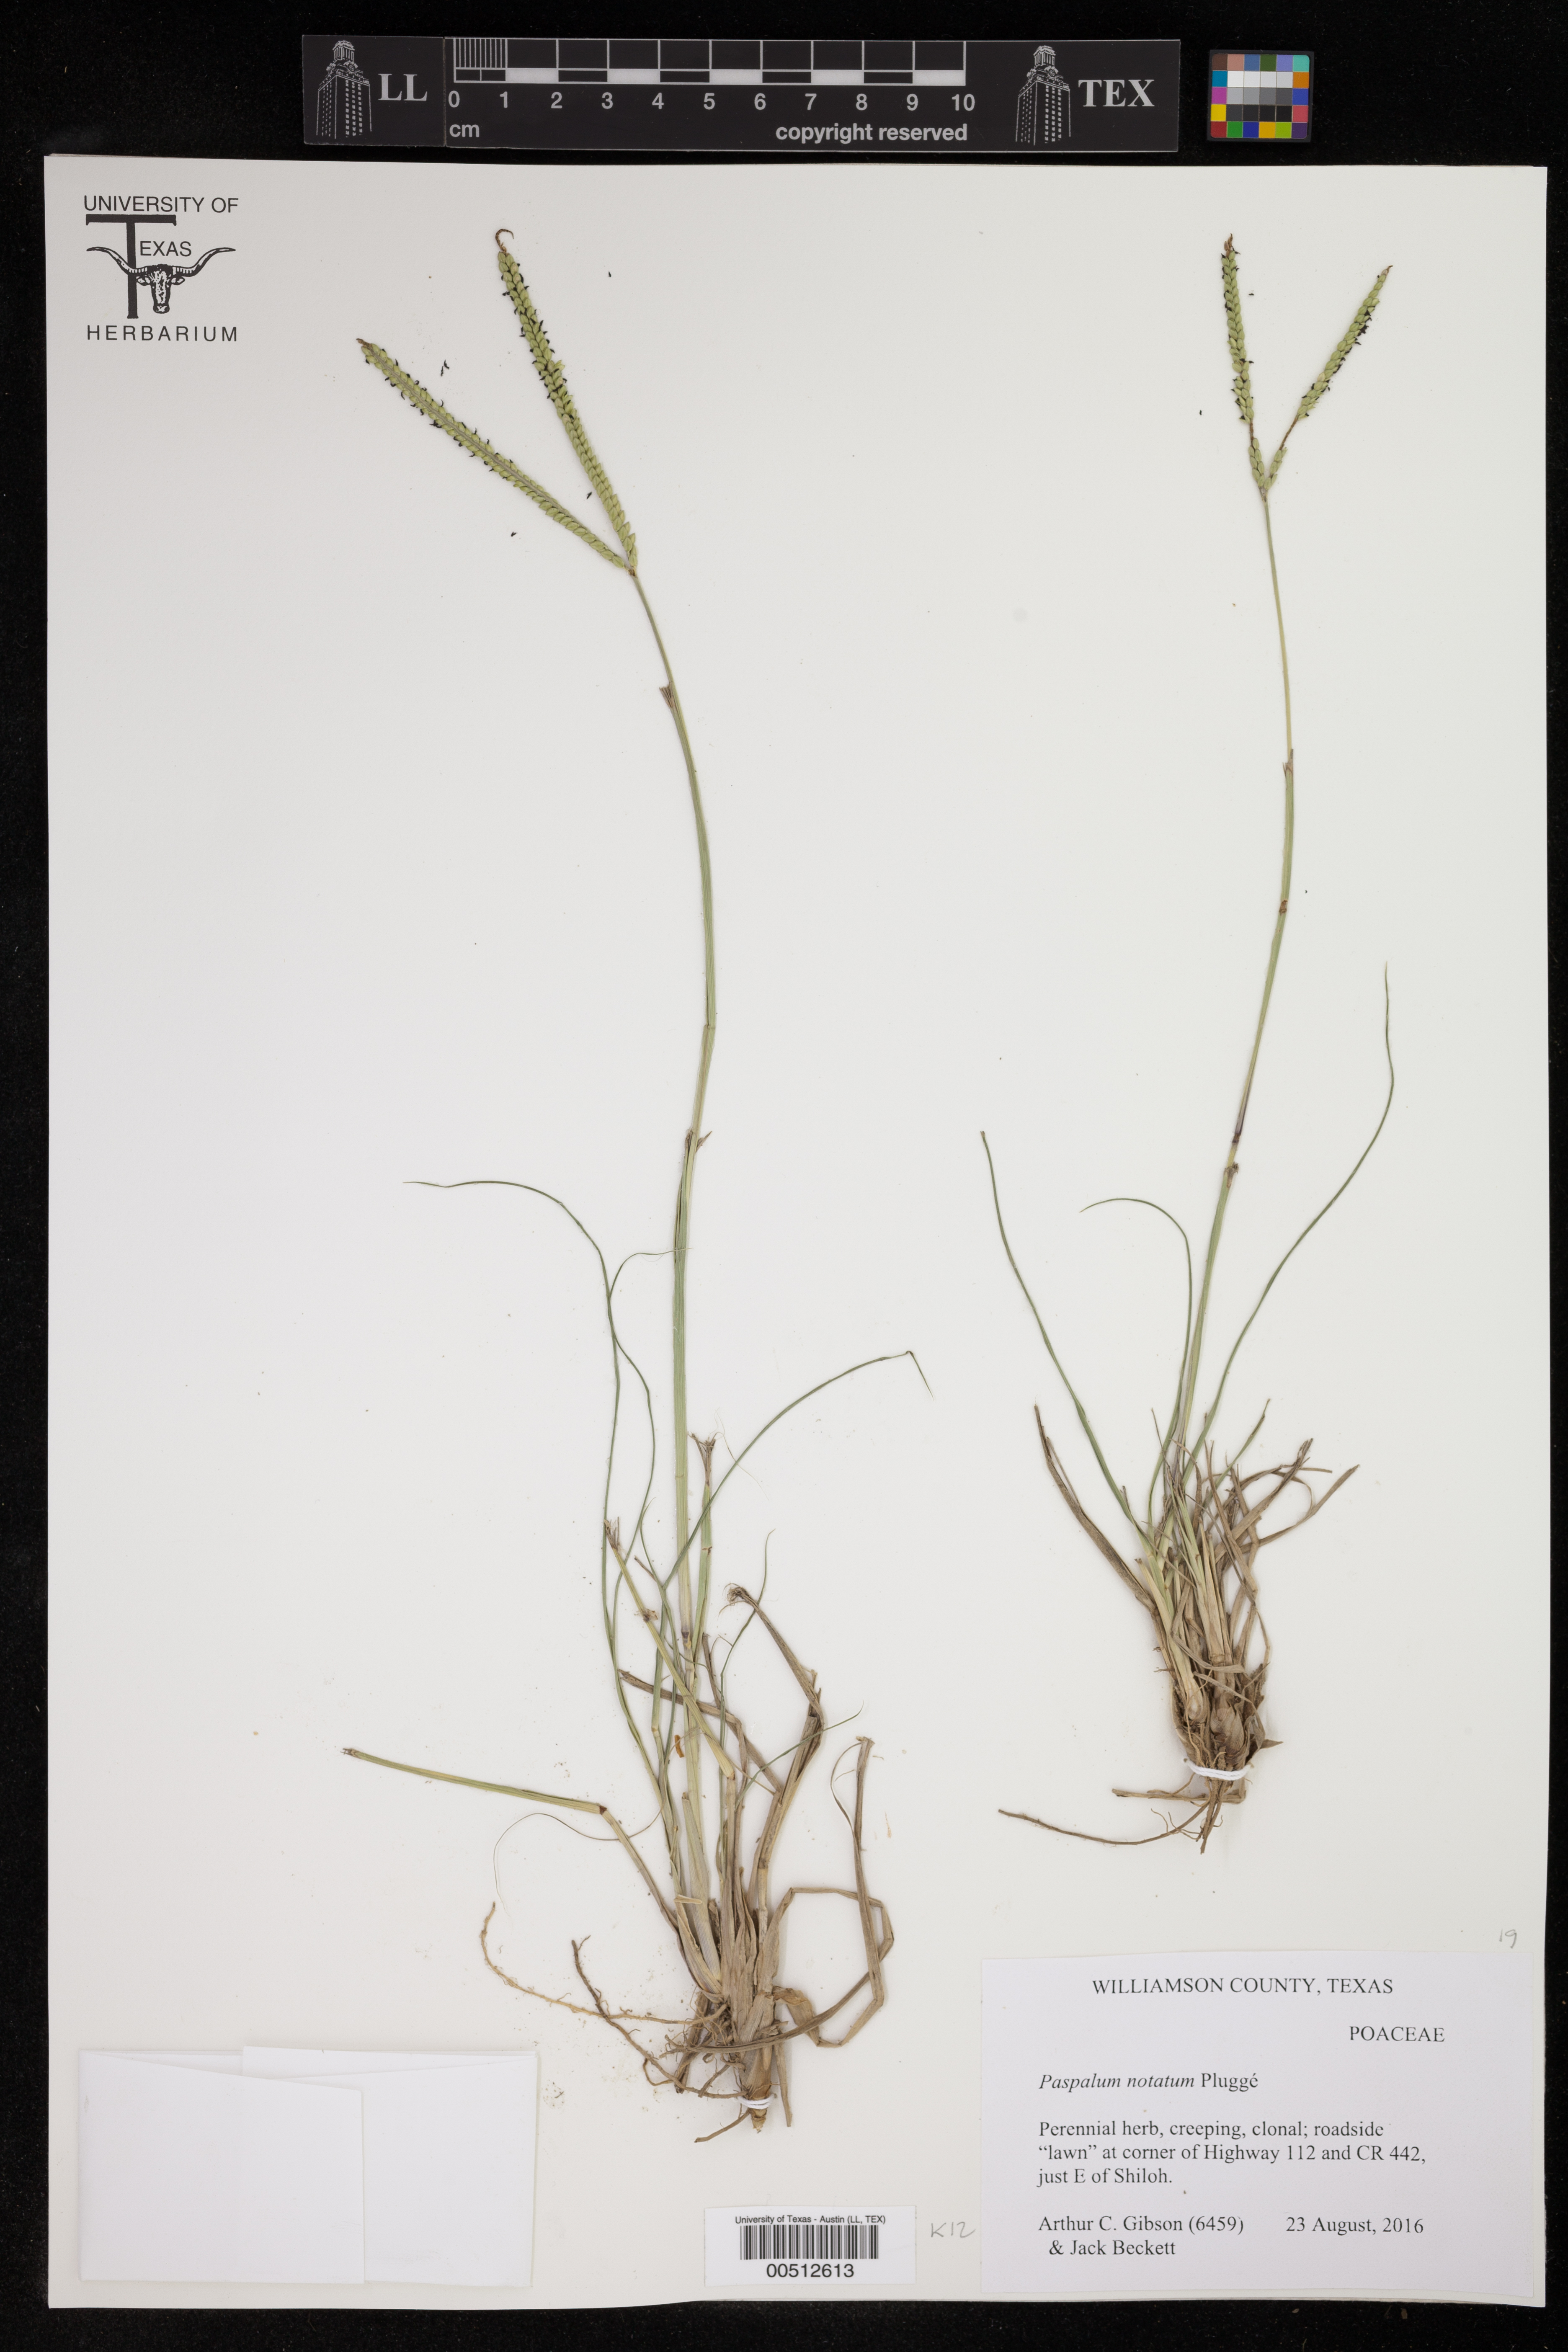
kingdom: Plantae
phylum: Tracheophyta
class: Liliopsida
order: Poales
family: Poaceae
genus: Paspalum
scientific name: Paspalum notatum
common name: Bahiagrass
